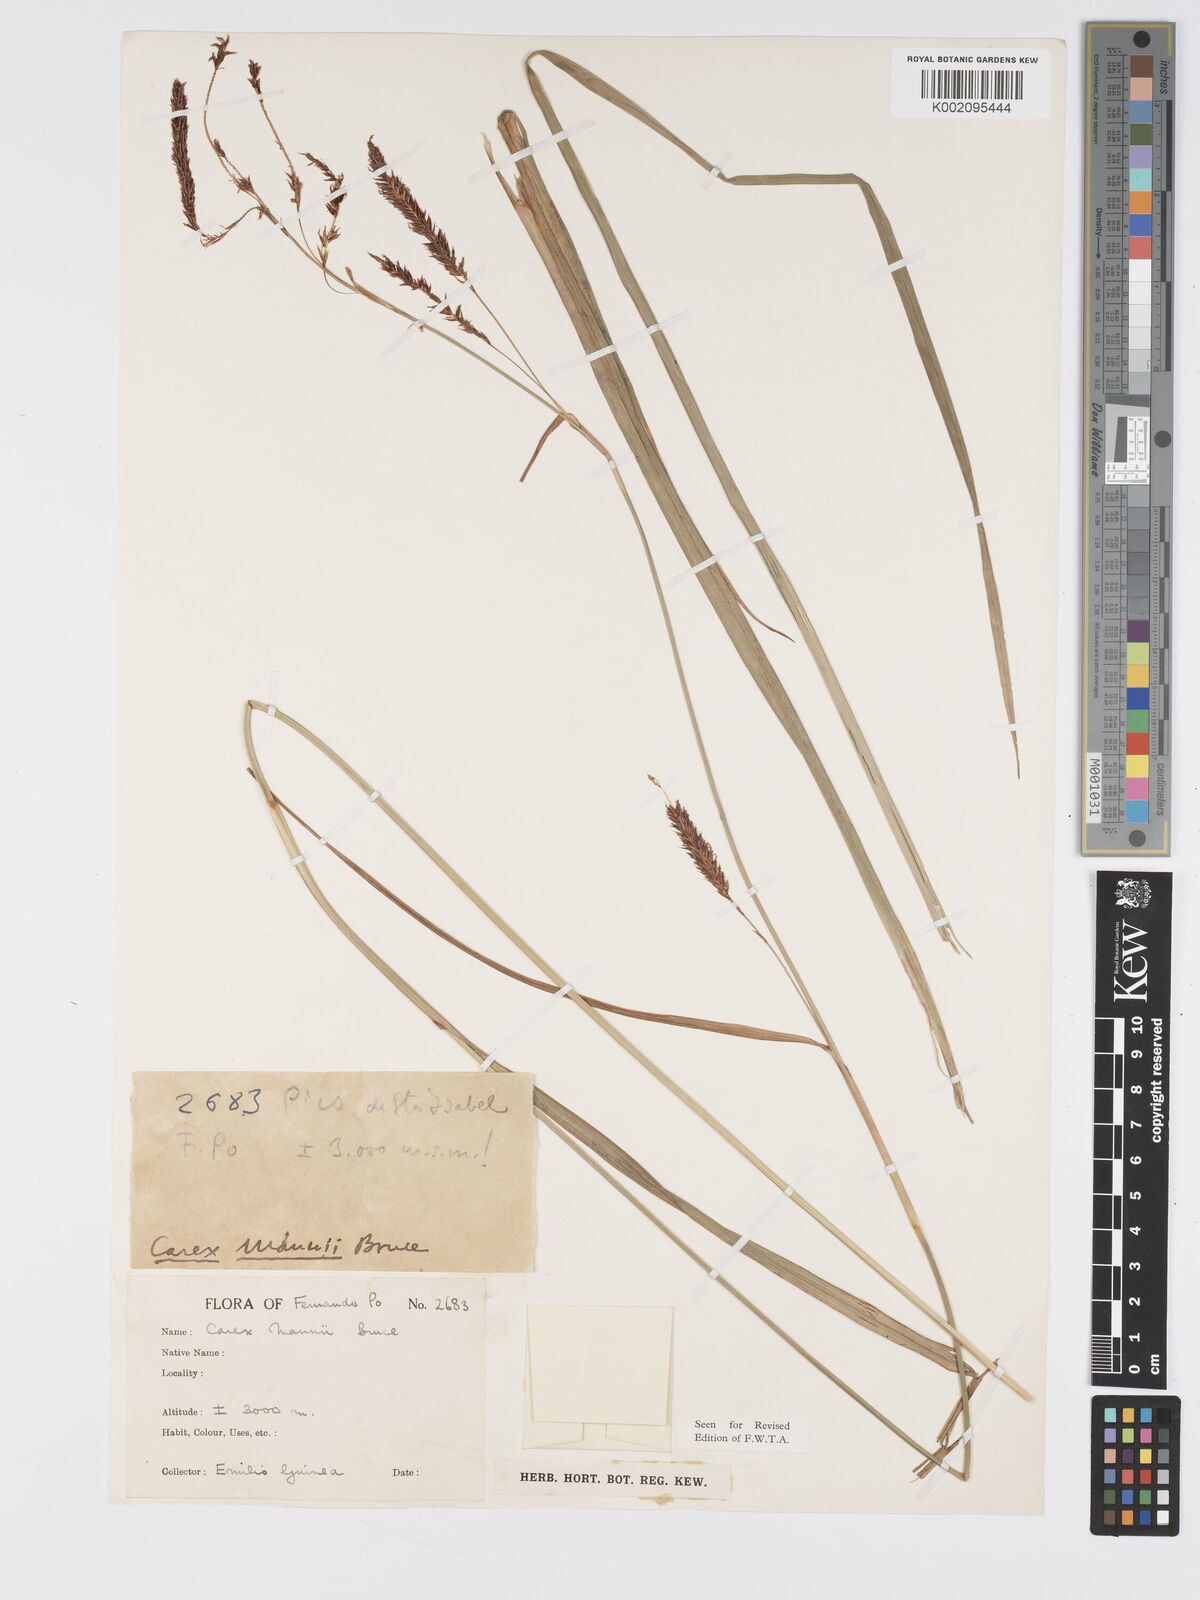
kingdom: Plantae
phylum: Tracheophyta
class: Liliopsida
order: Poales
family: Cyperaceae
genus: Carex
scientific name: Carex mannii
